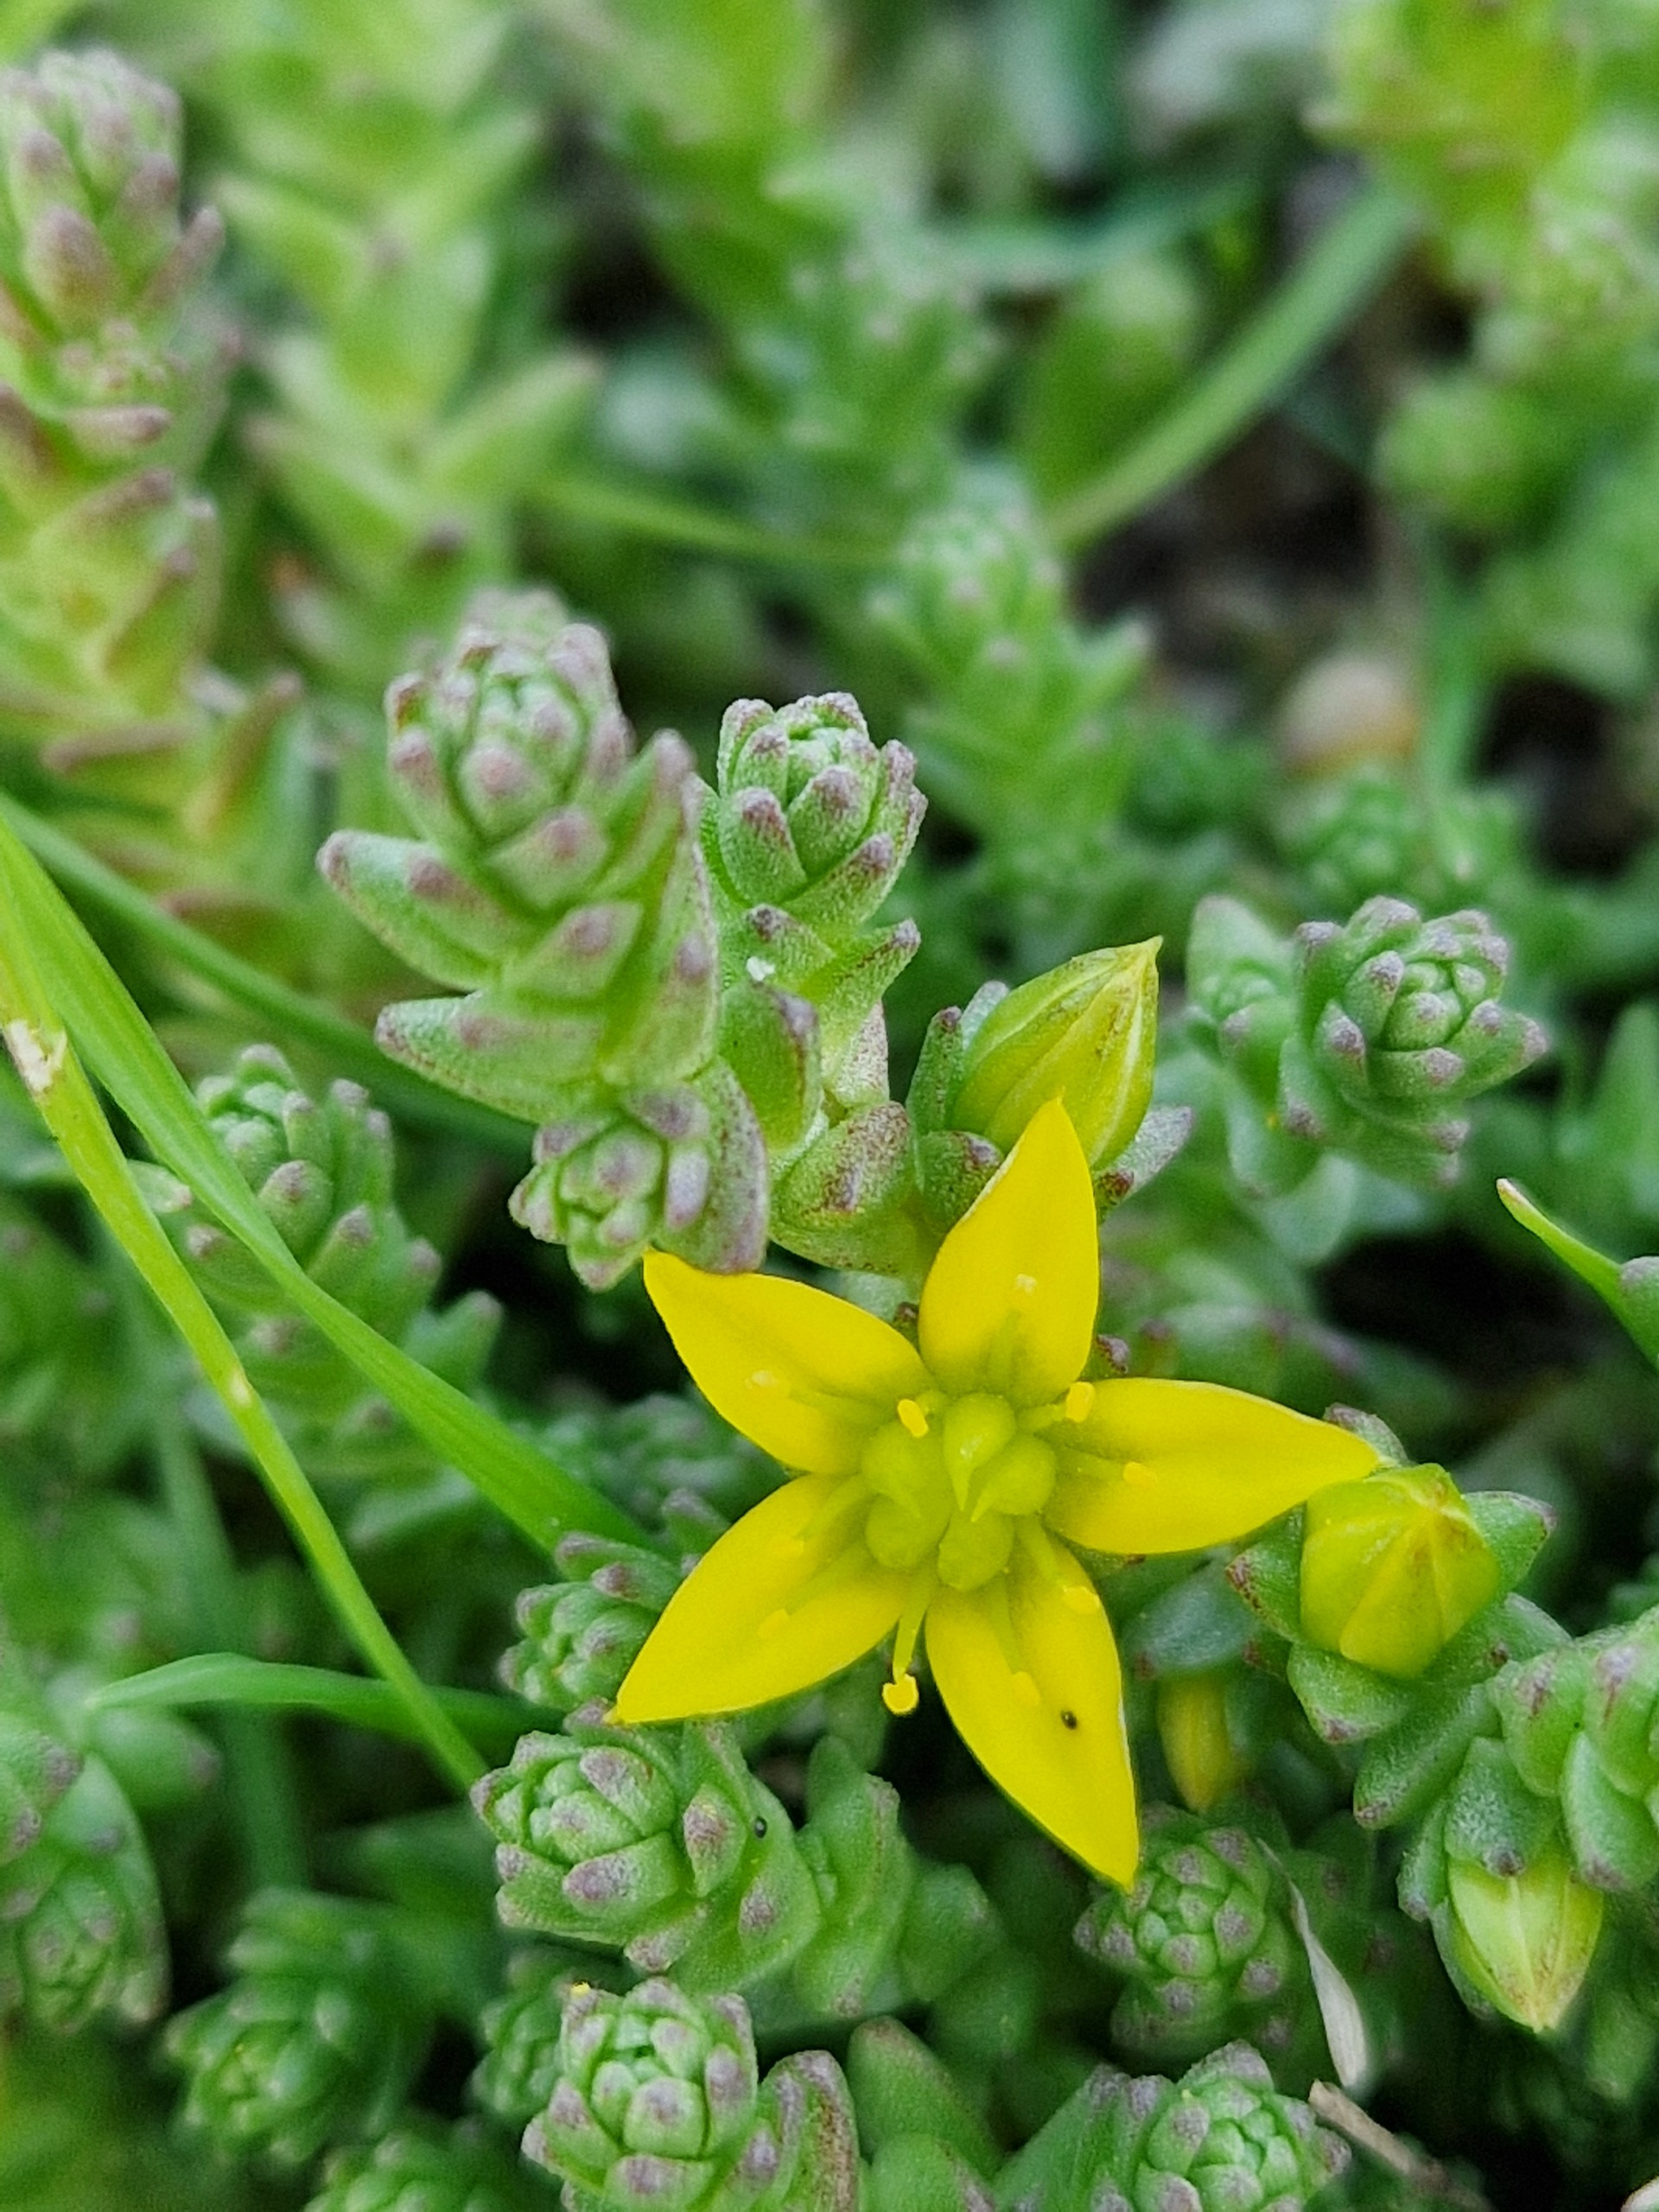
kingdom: Plantae
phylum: Tracheophyta
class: Magnoliopsida
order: Saxifragales
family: Crassulaceae
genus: Sedum
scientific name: Sedum acre
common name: Bidende stenurt
